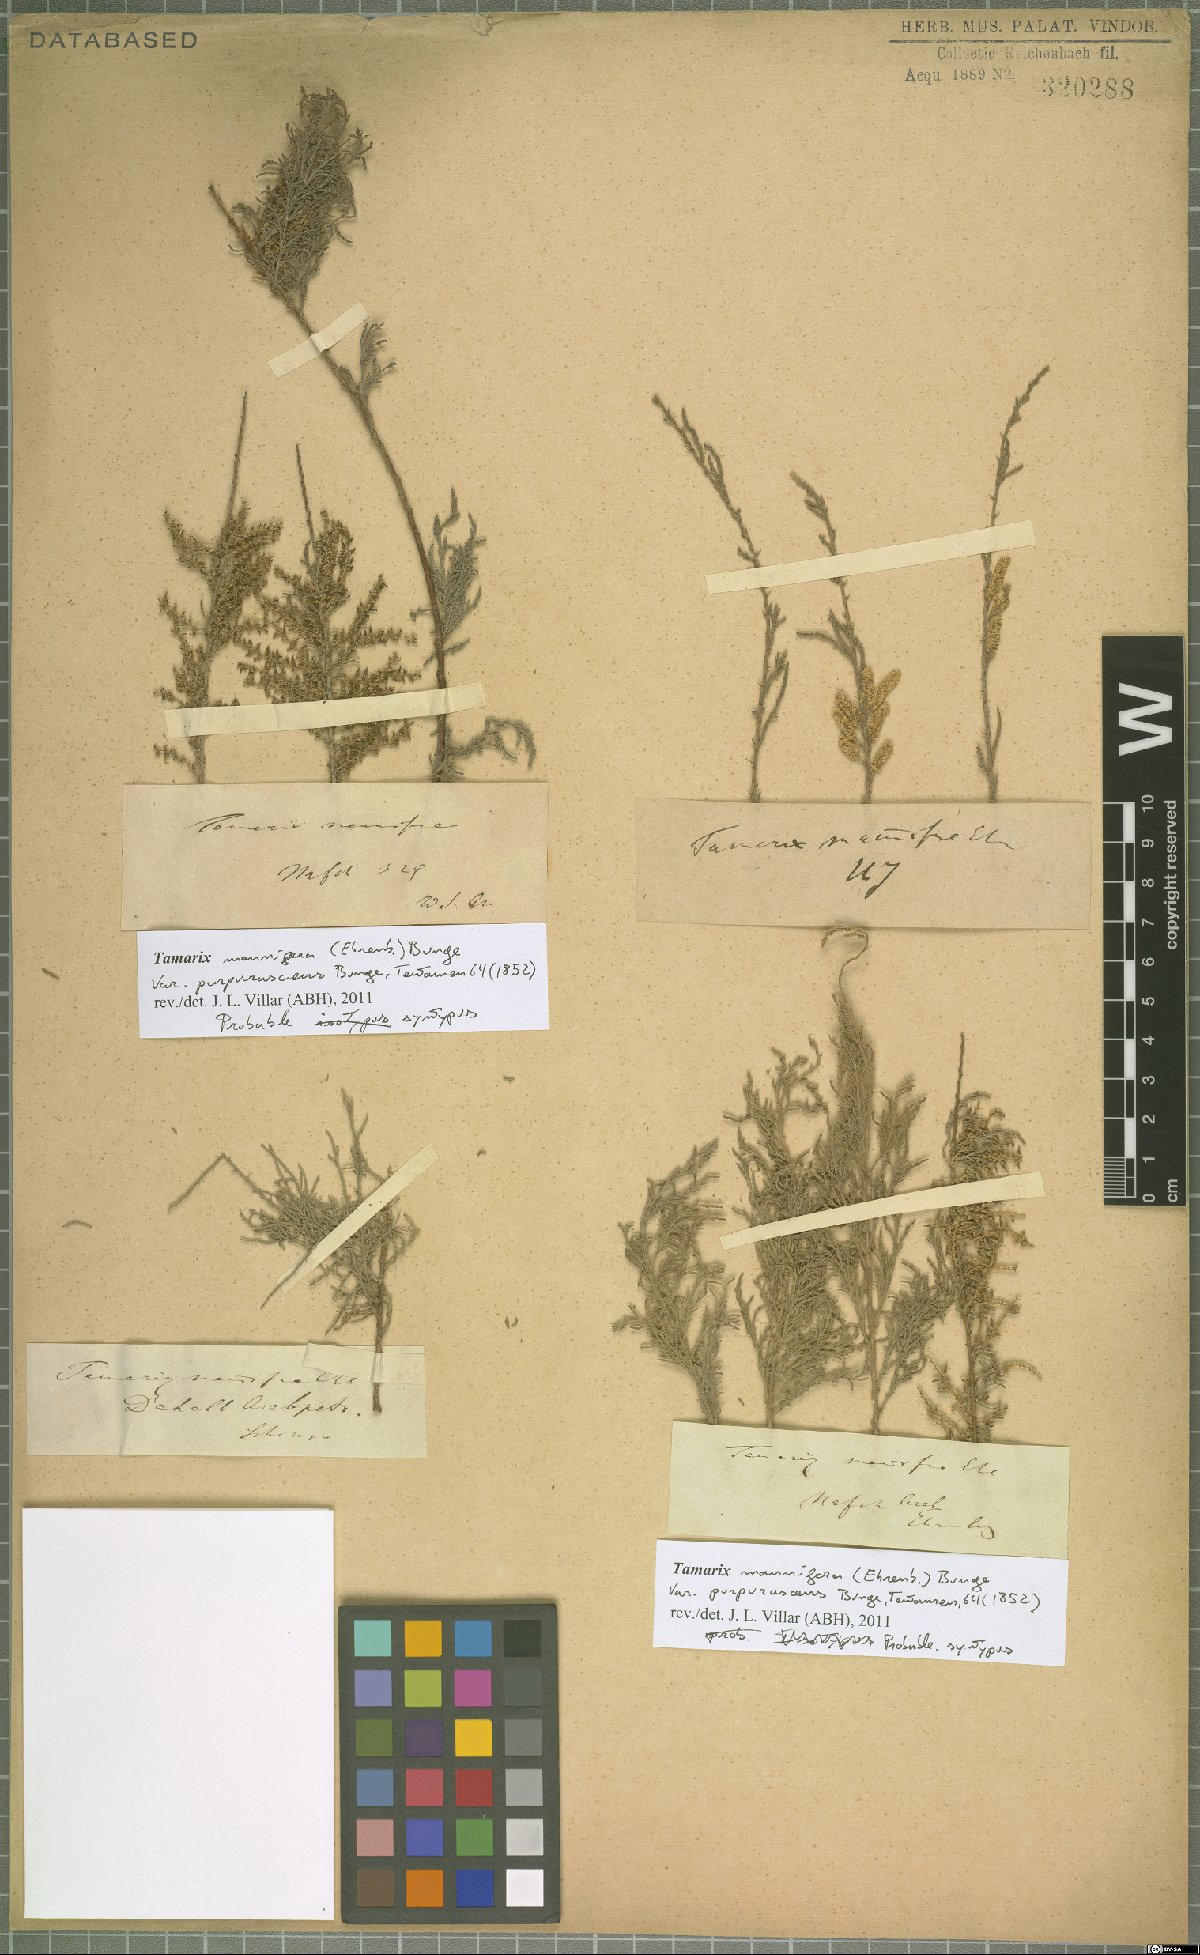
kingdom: Plantae
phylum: Tracheophyta
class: Magnoliopsida
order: Caryophyllales
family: Tamaricaceae
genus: Tamarix
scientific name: Tamarix senegalensis
